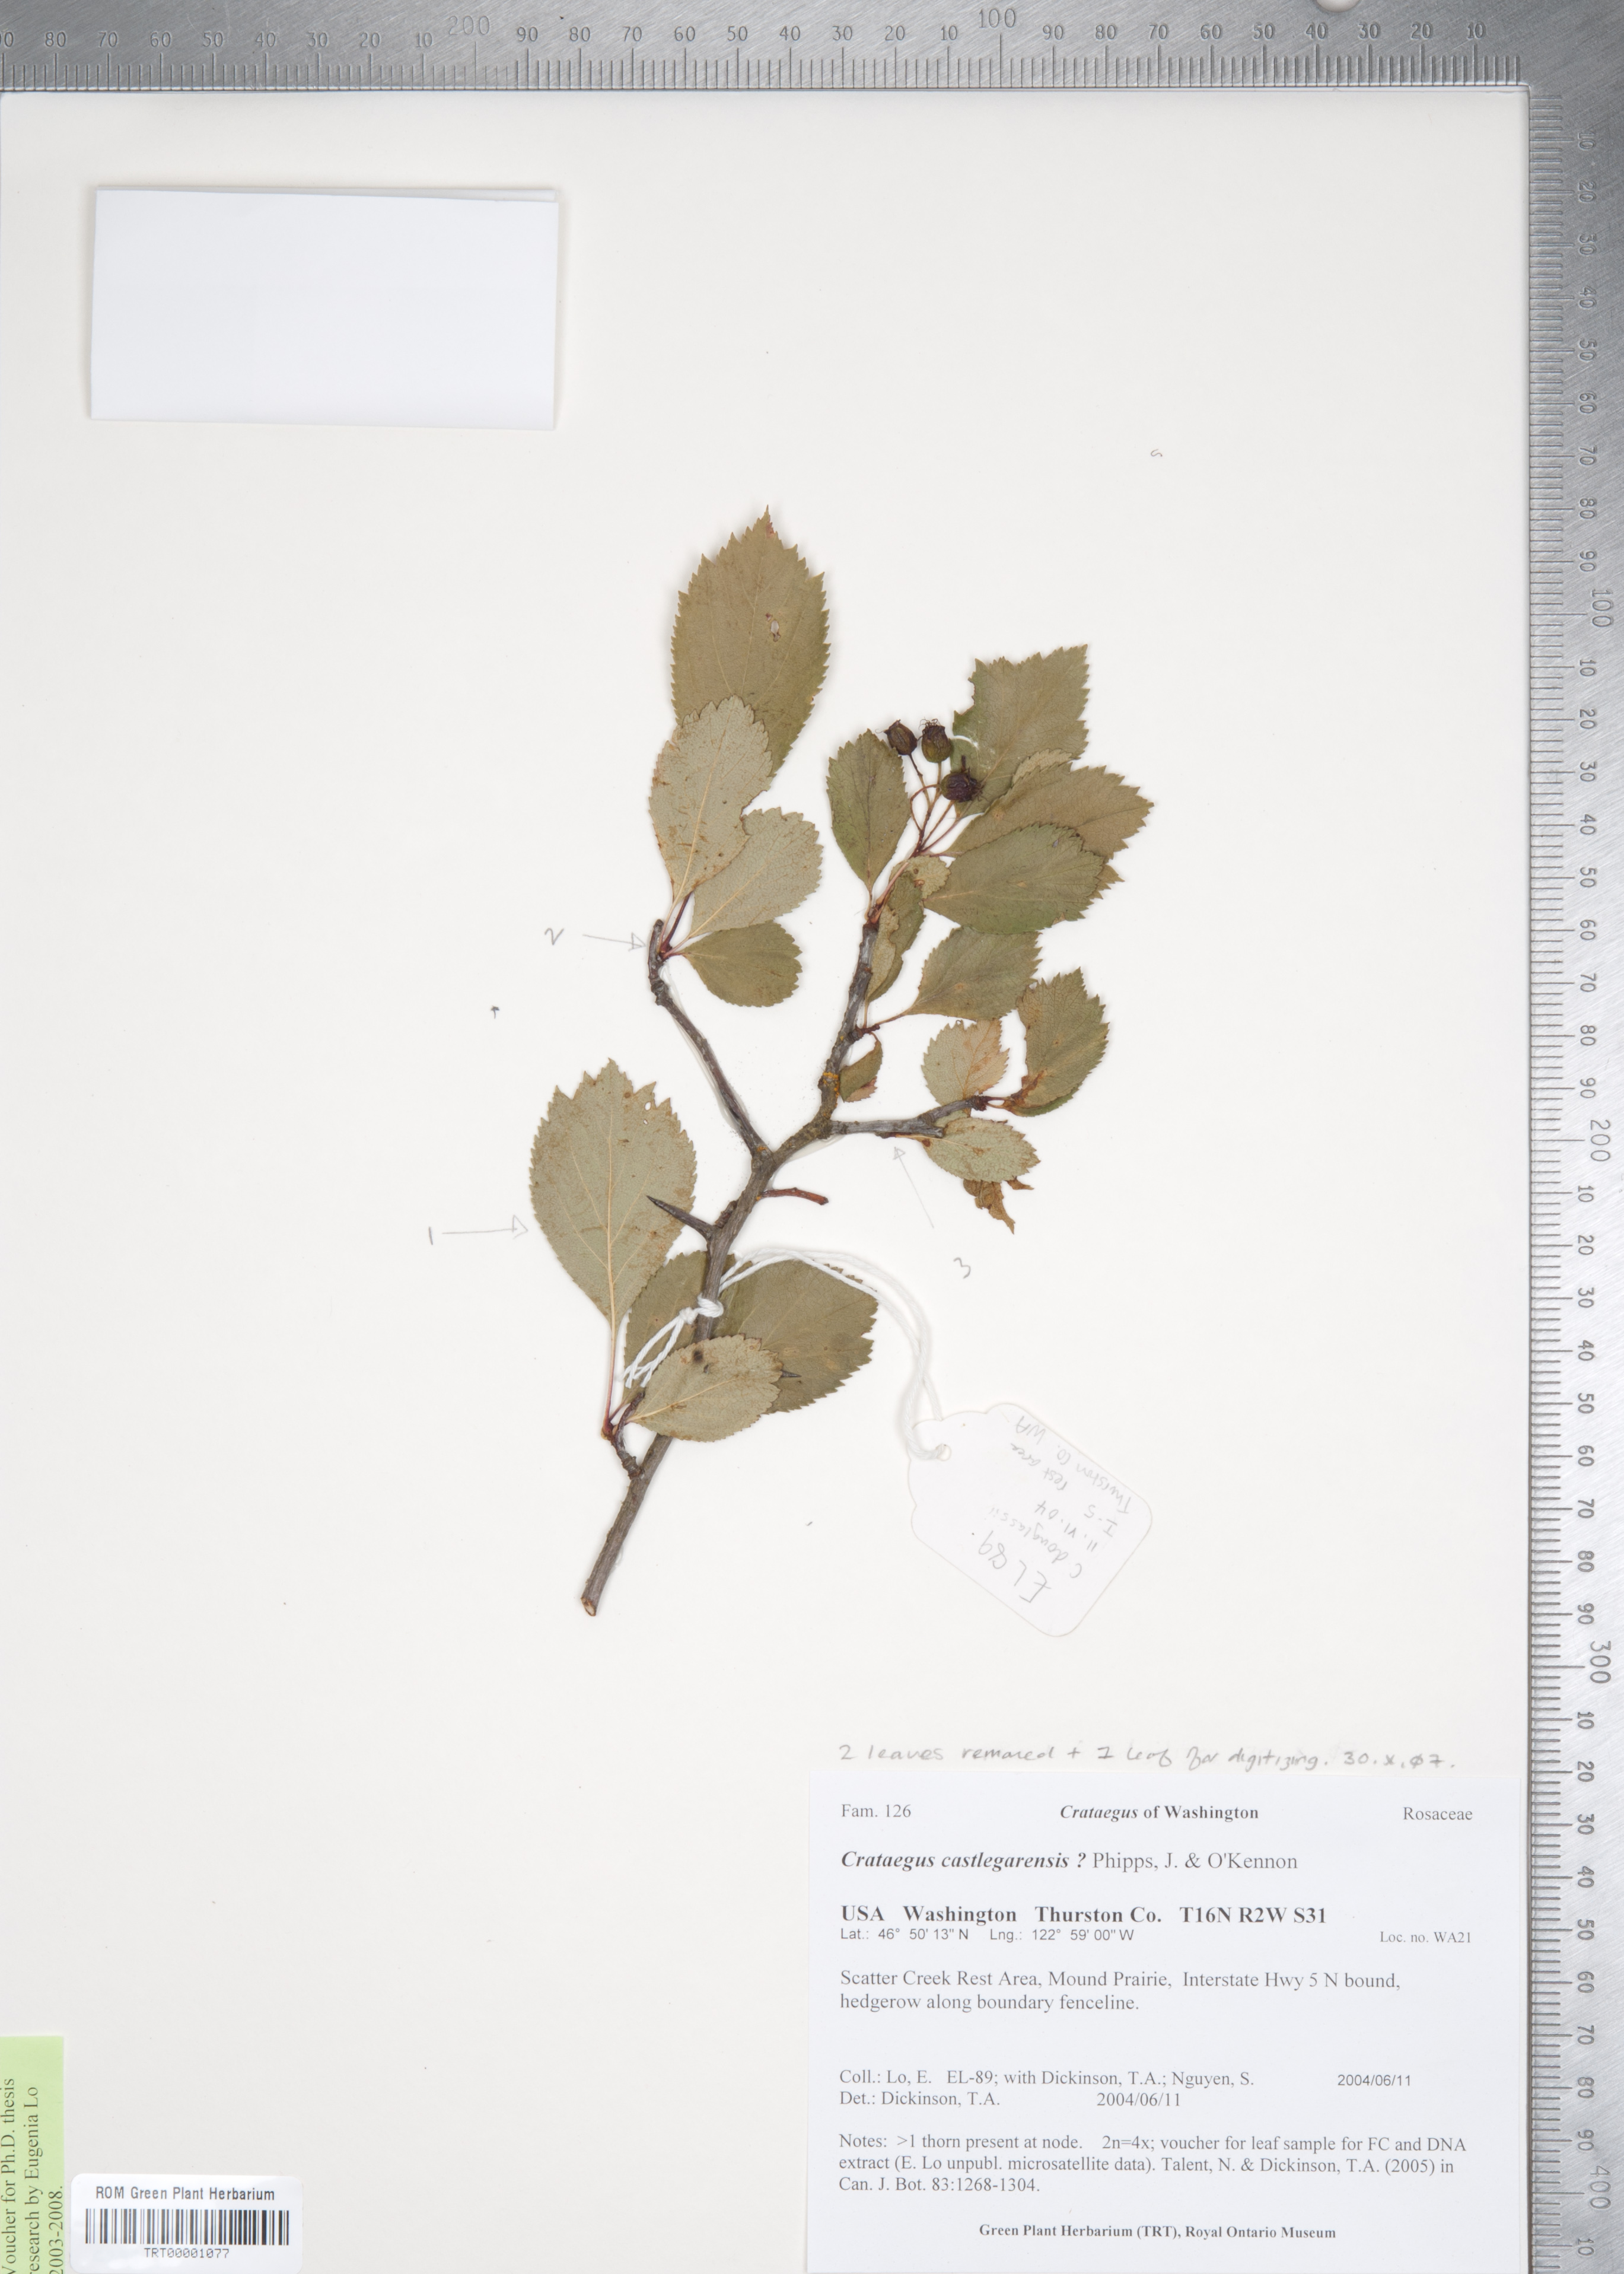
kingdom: Plantae
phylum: Tracheophyta
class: Magnoliopsida
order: Rosales
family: Rosaceae
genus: Crataegus
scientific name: Crataegus castlegarensis
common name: Castlegar hawthorn
